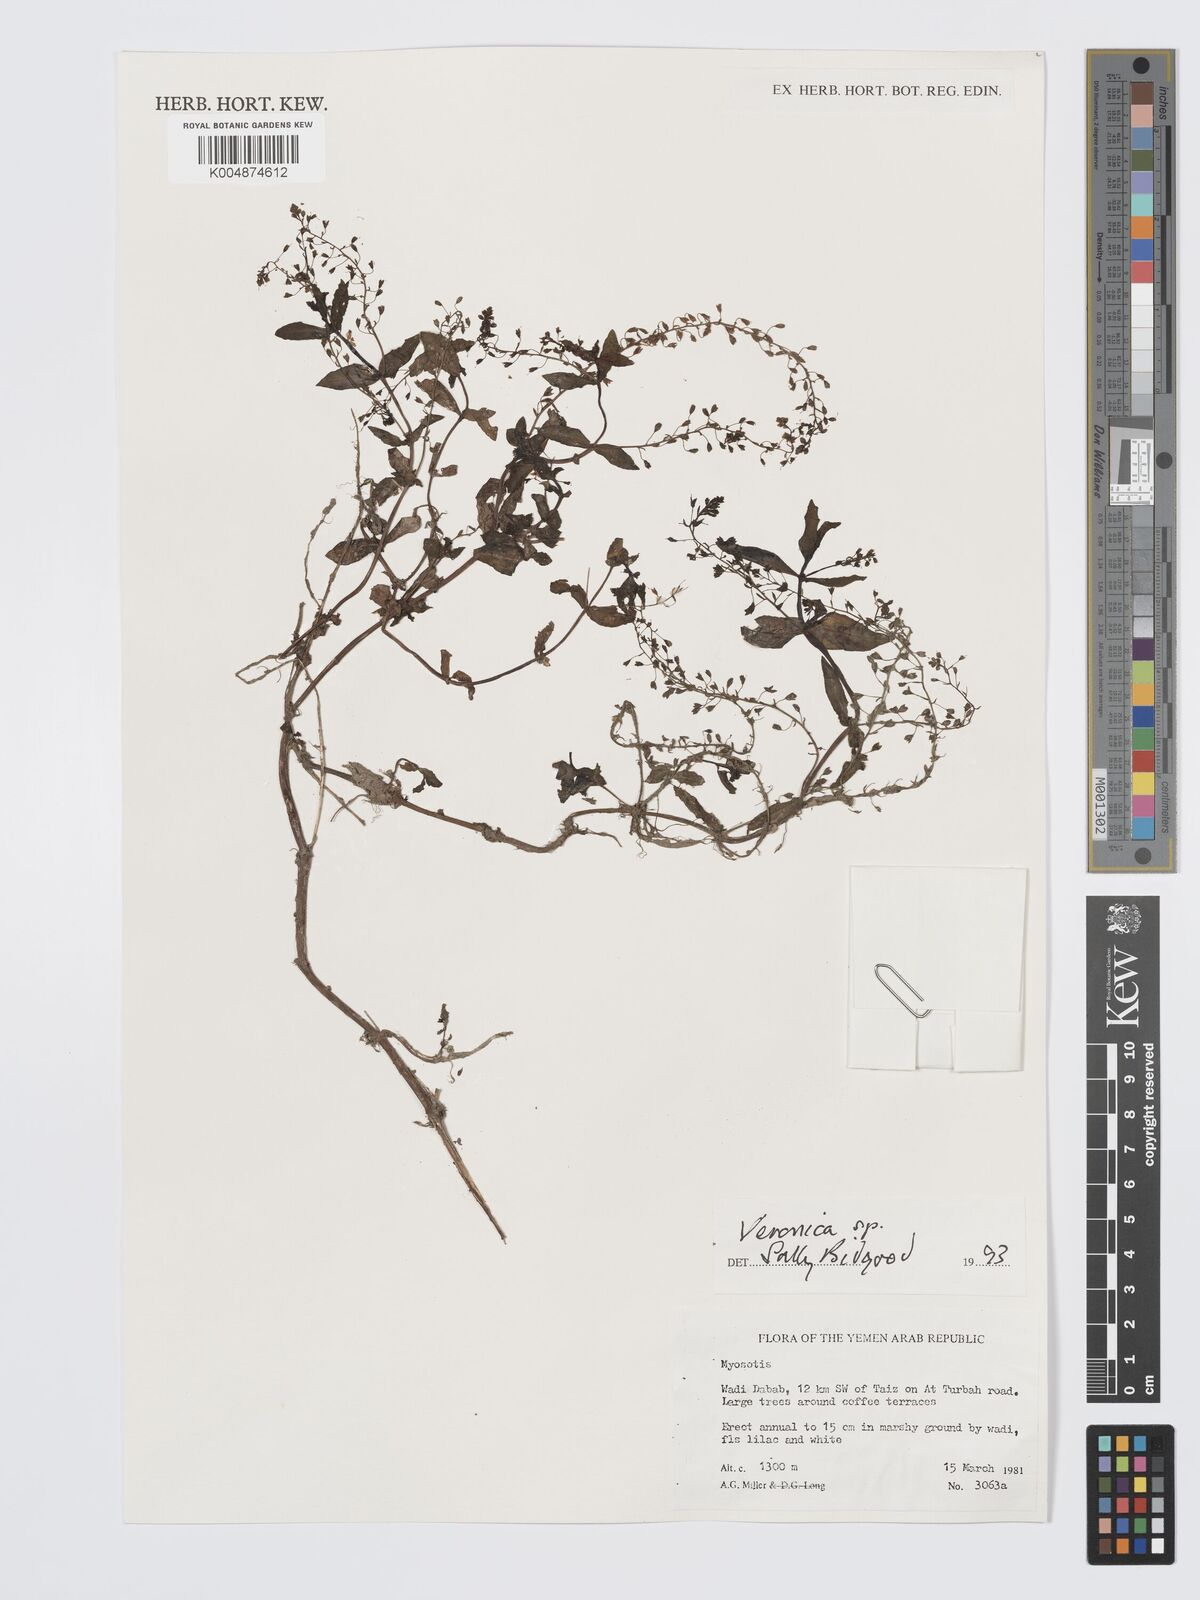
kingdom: Plantae
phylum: Tracheophyta
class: Magnoliopsida
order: Lamiales
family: Plantaginaceae
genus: Veronica
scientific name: Veronica
